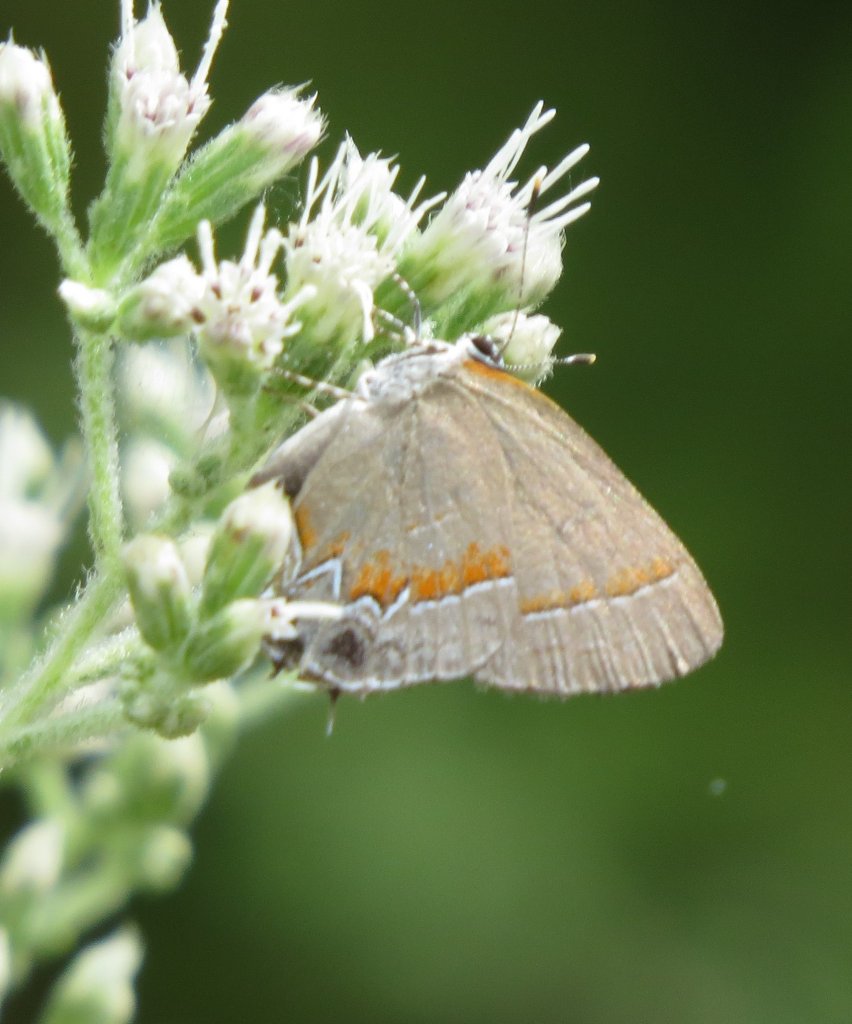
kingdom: Animalia
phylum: Arthropoda
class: Insecta
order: Lepidoptera
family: Lycaenidae
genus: Calycopis
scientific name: Calycopis cecrops
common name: Red-banded Hairstreak
